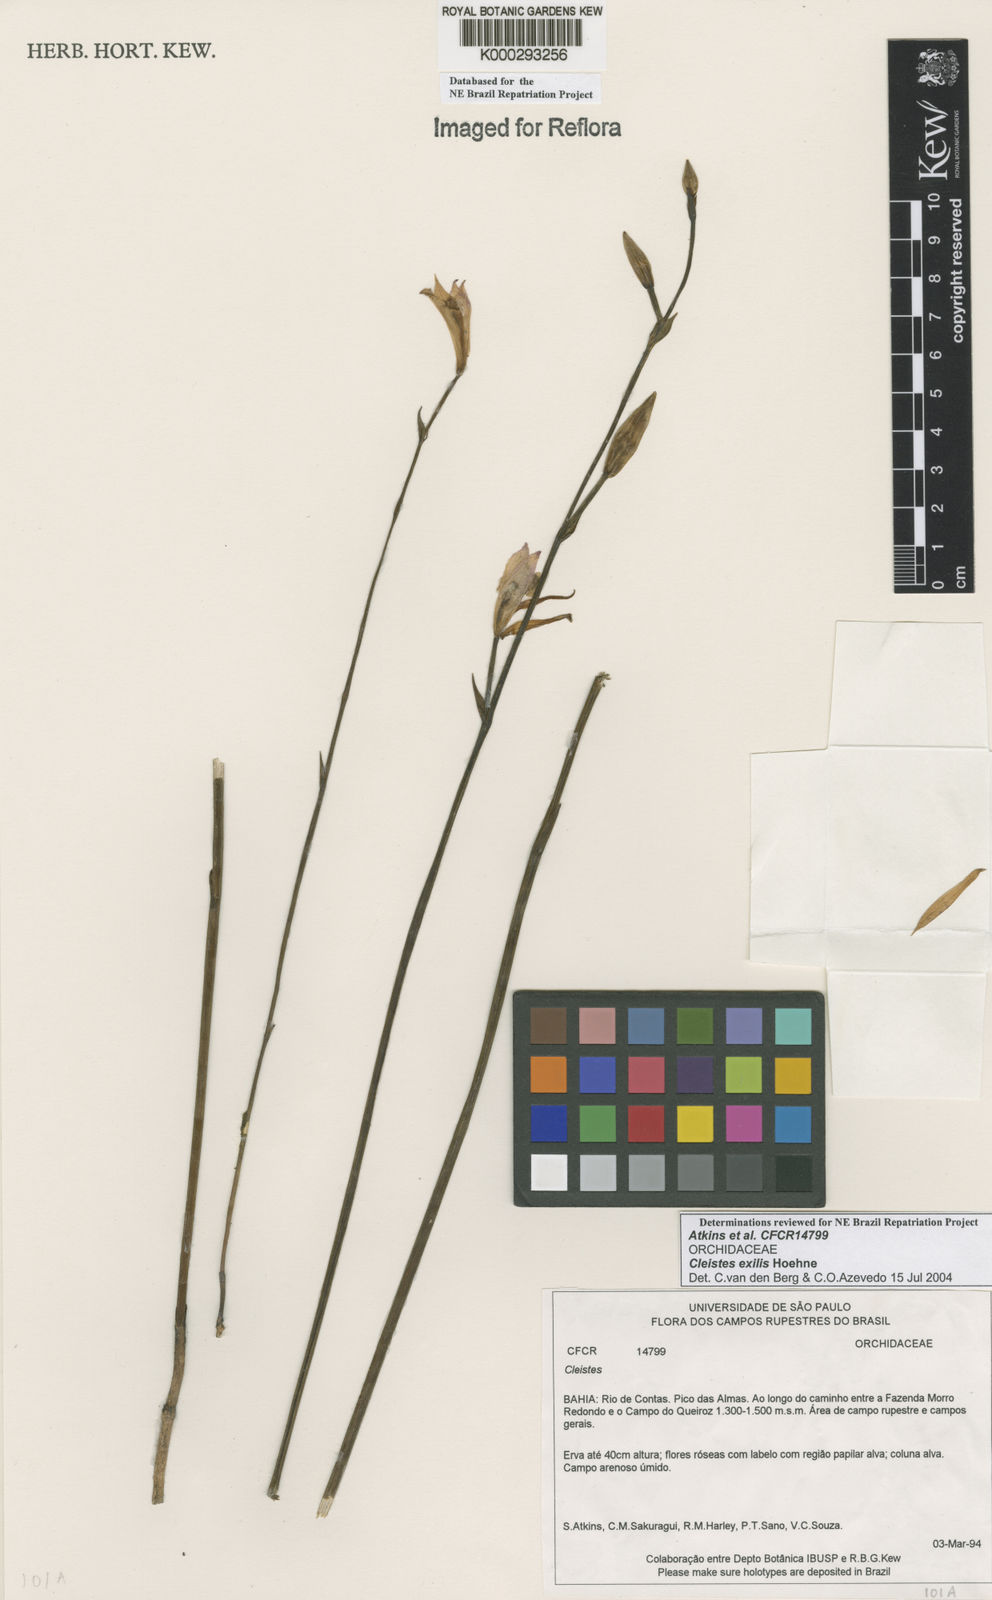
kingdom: Plantae
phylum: Tracheophyta
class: Liliopsida
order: Asparagales
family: Orchidaceae
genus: Cleistes
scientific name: Cleistes exilis
